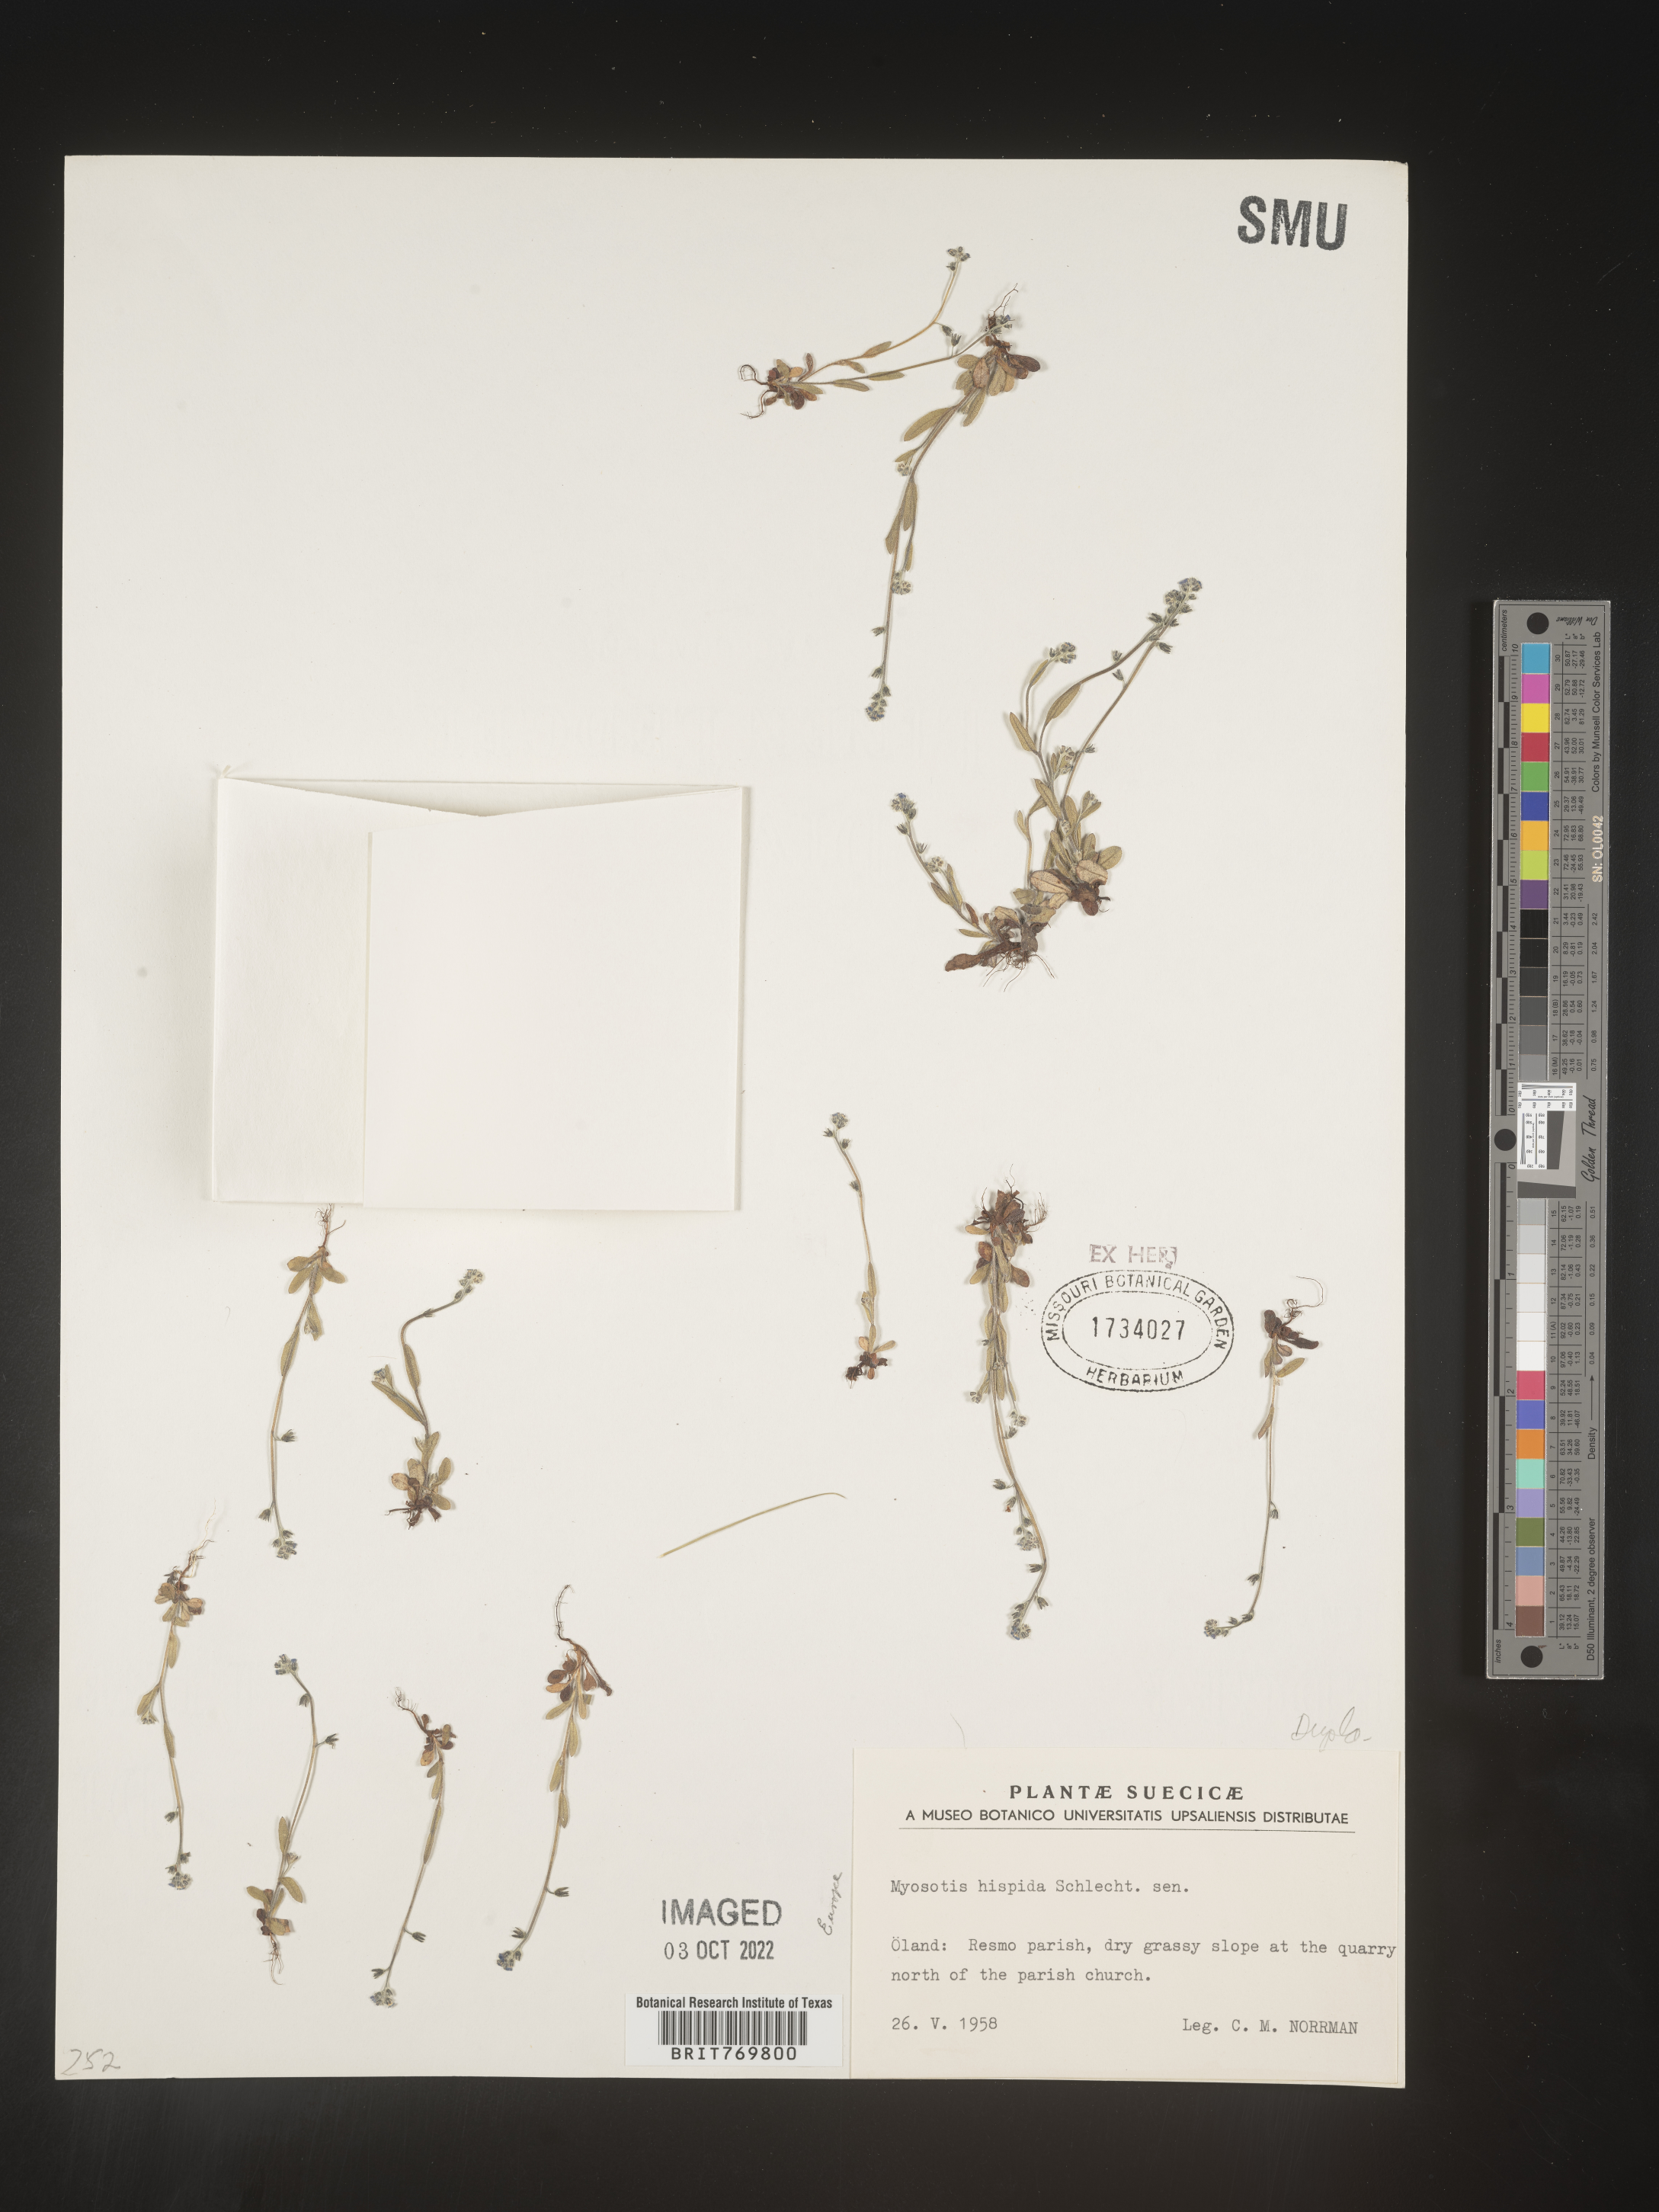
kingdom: Plantae
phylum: Tracheophyta
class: Magnoliopsida
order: Boraginales
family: Boraginaceae
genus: Myosotis
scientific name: Myosotis
